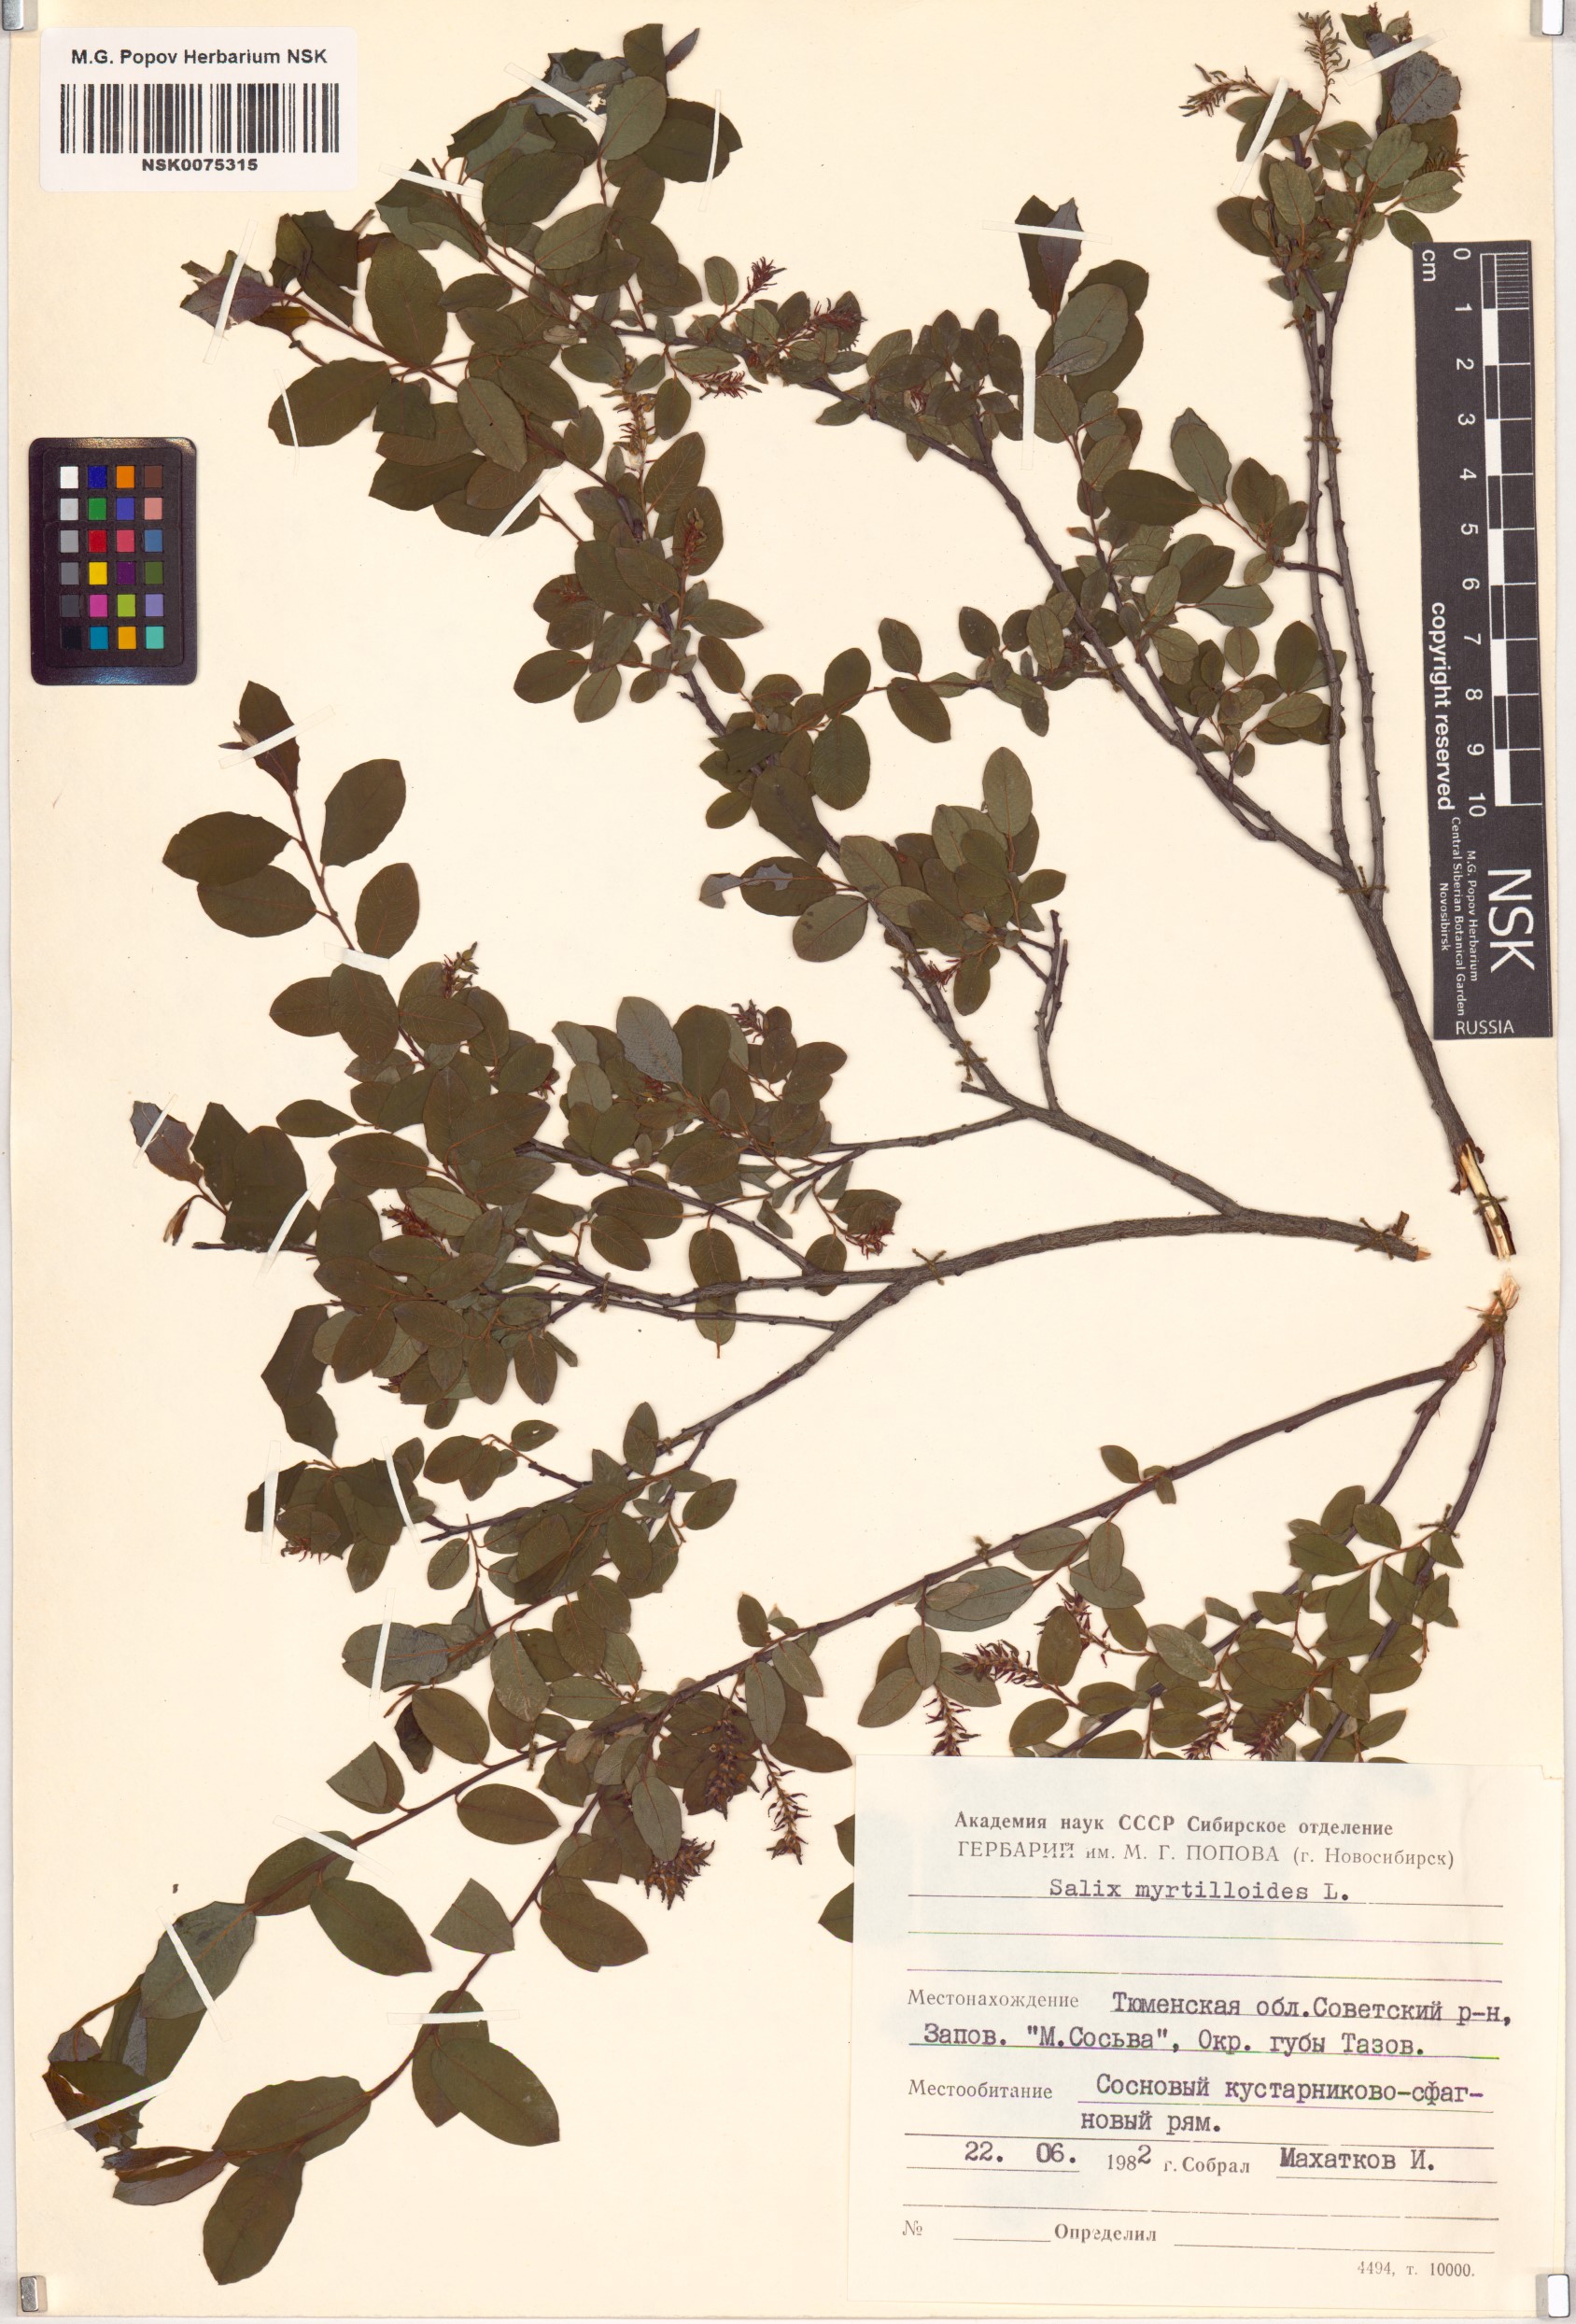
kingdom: Plantae
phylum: Tracheophyta
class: Magnoliopsida
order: Malpighiales
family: Salicaceae
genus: Salix
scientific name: Salix myrtilloides
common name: Myrtle-leaved willow
